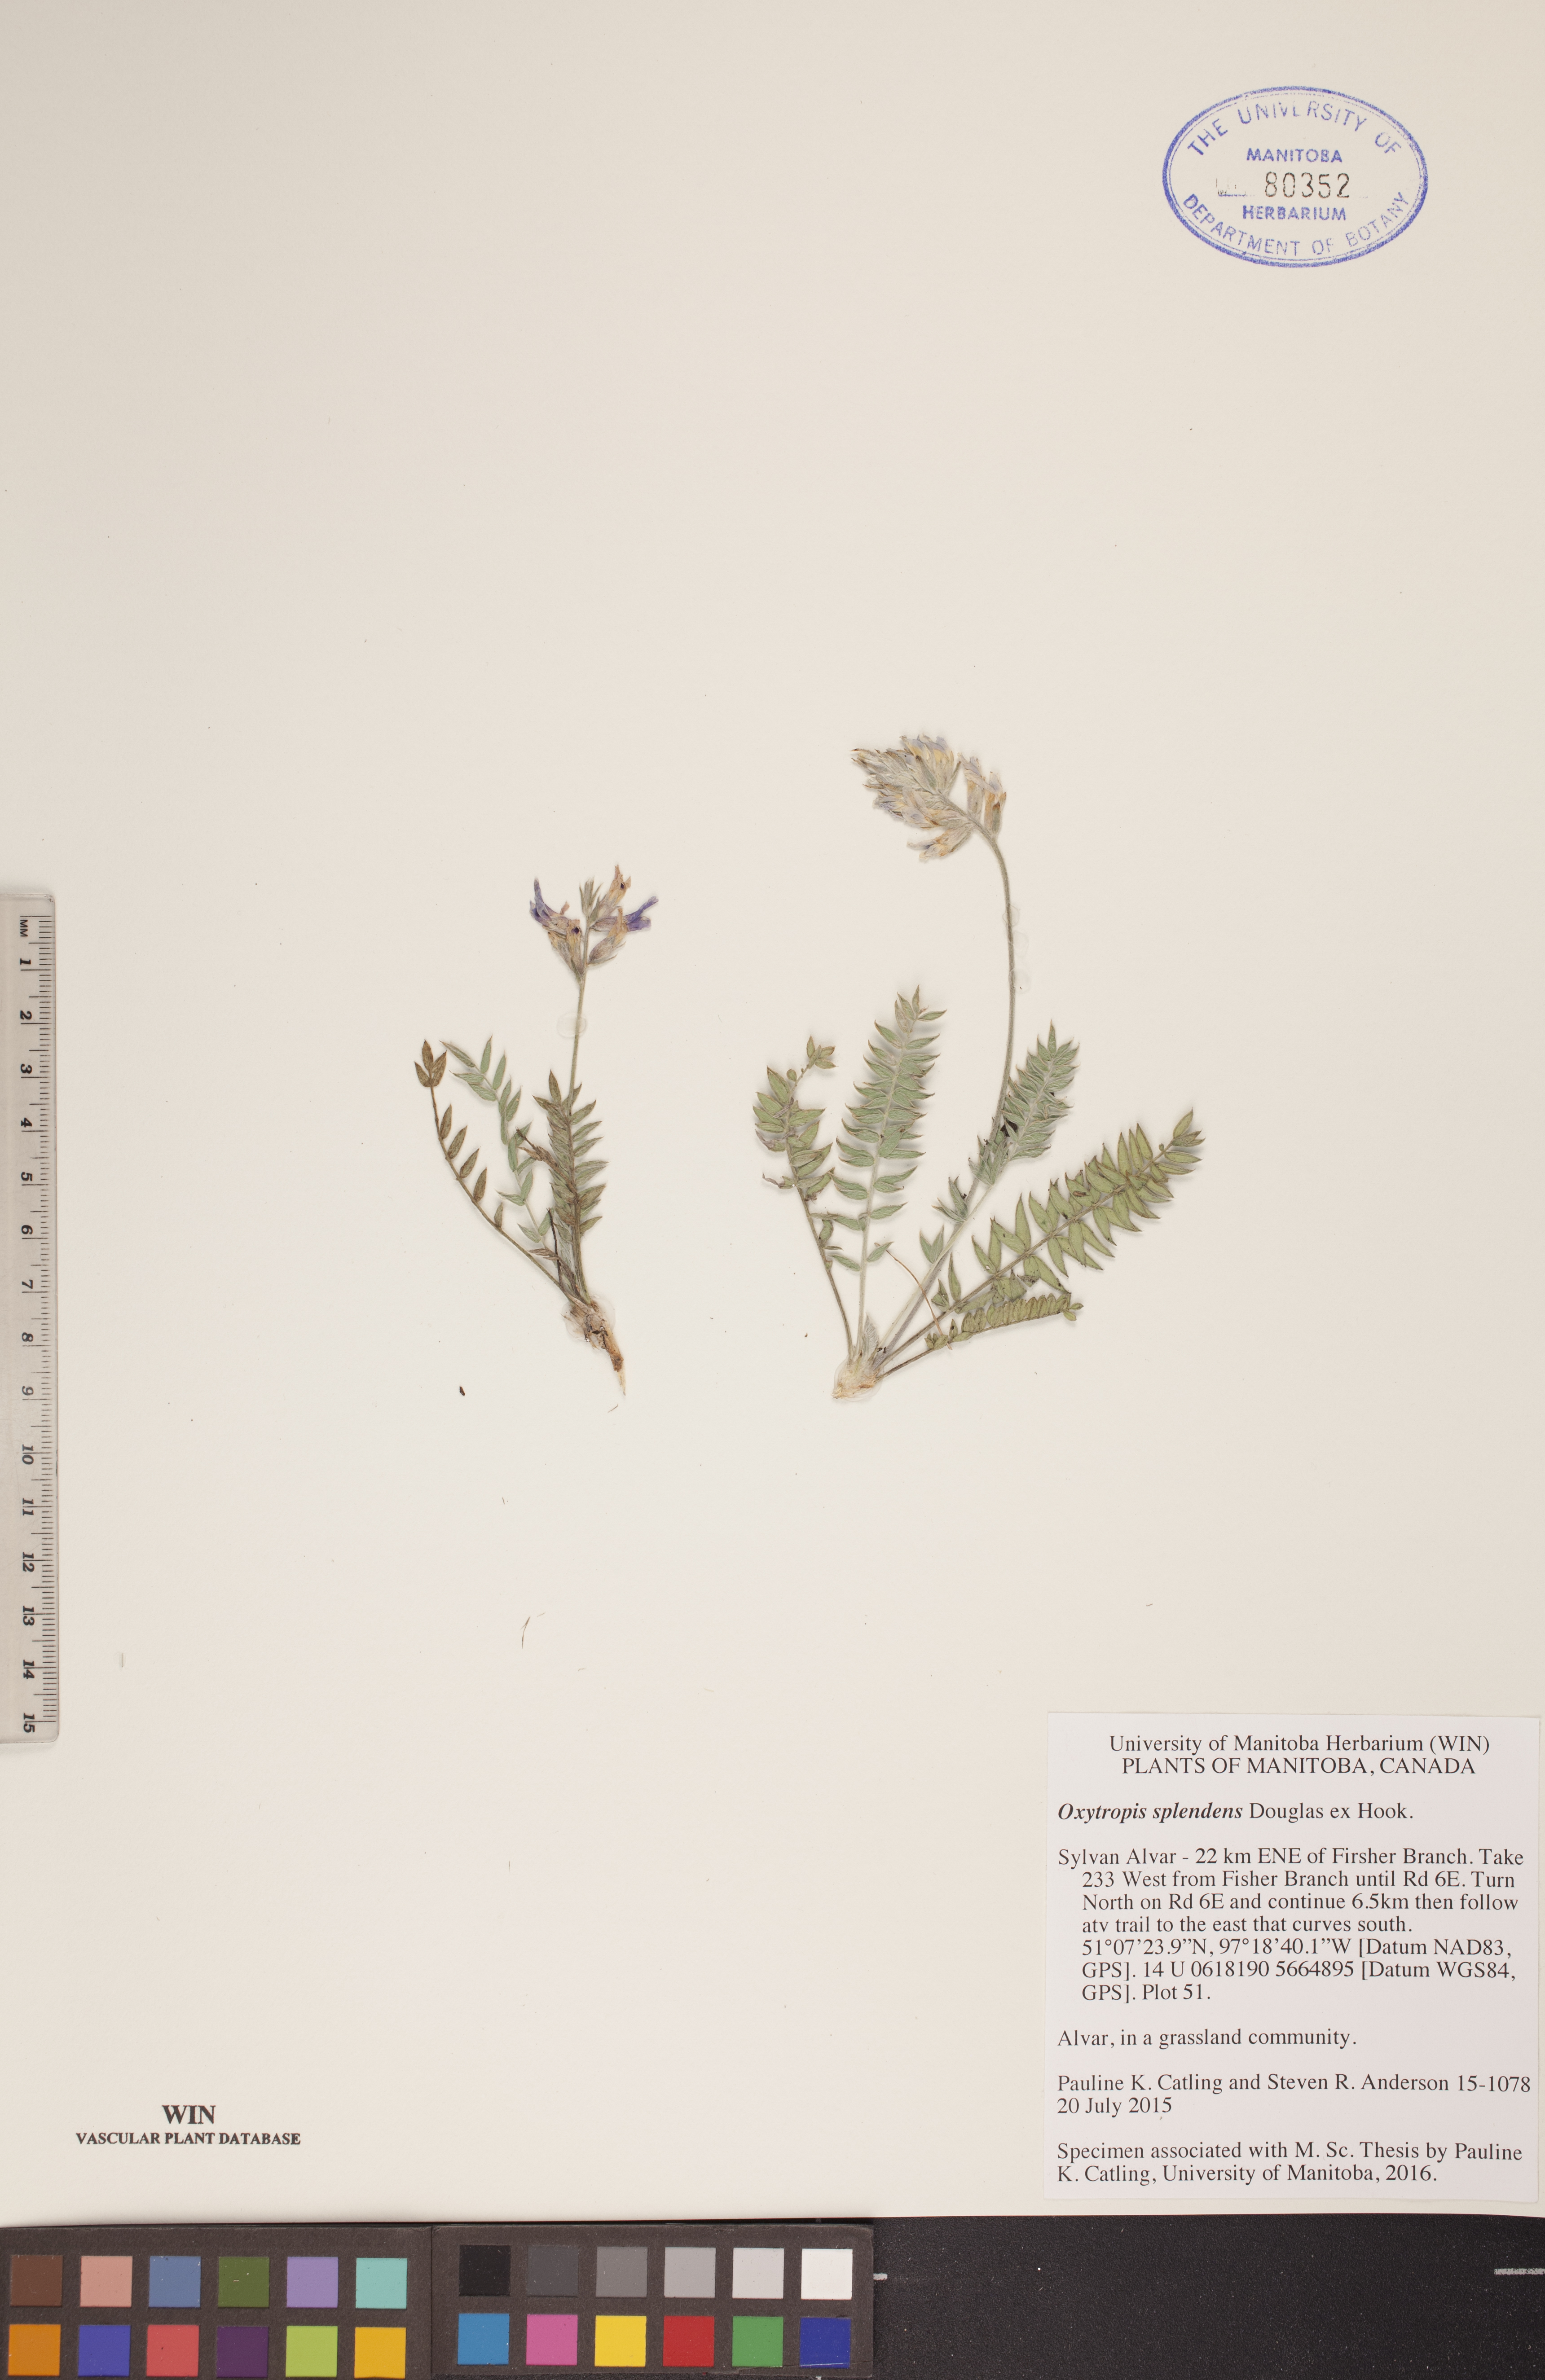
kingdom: Plantae
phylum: Tracheophyta
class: Magnoliopsida
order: Fabales
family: Fabaceae
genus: Oxytropis
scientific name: Oxytropis splendens
